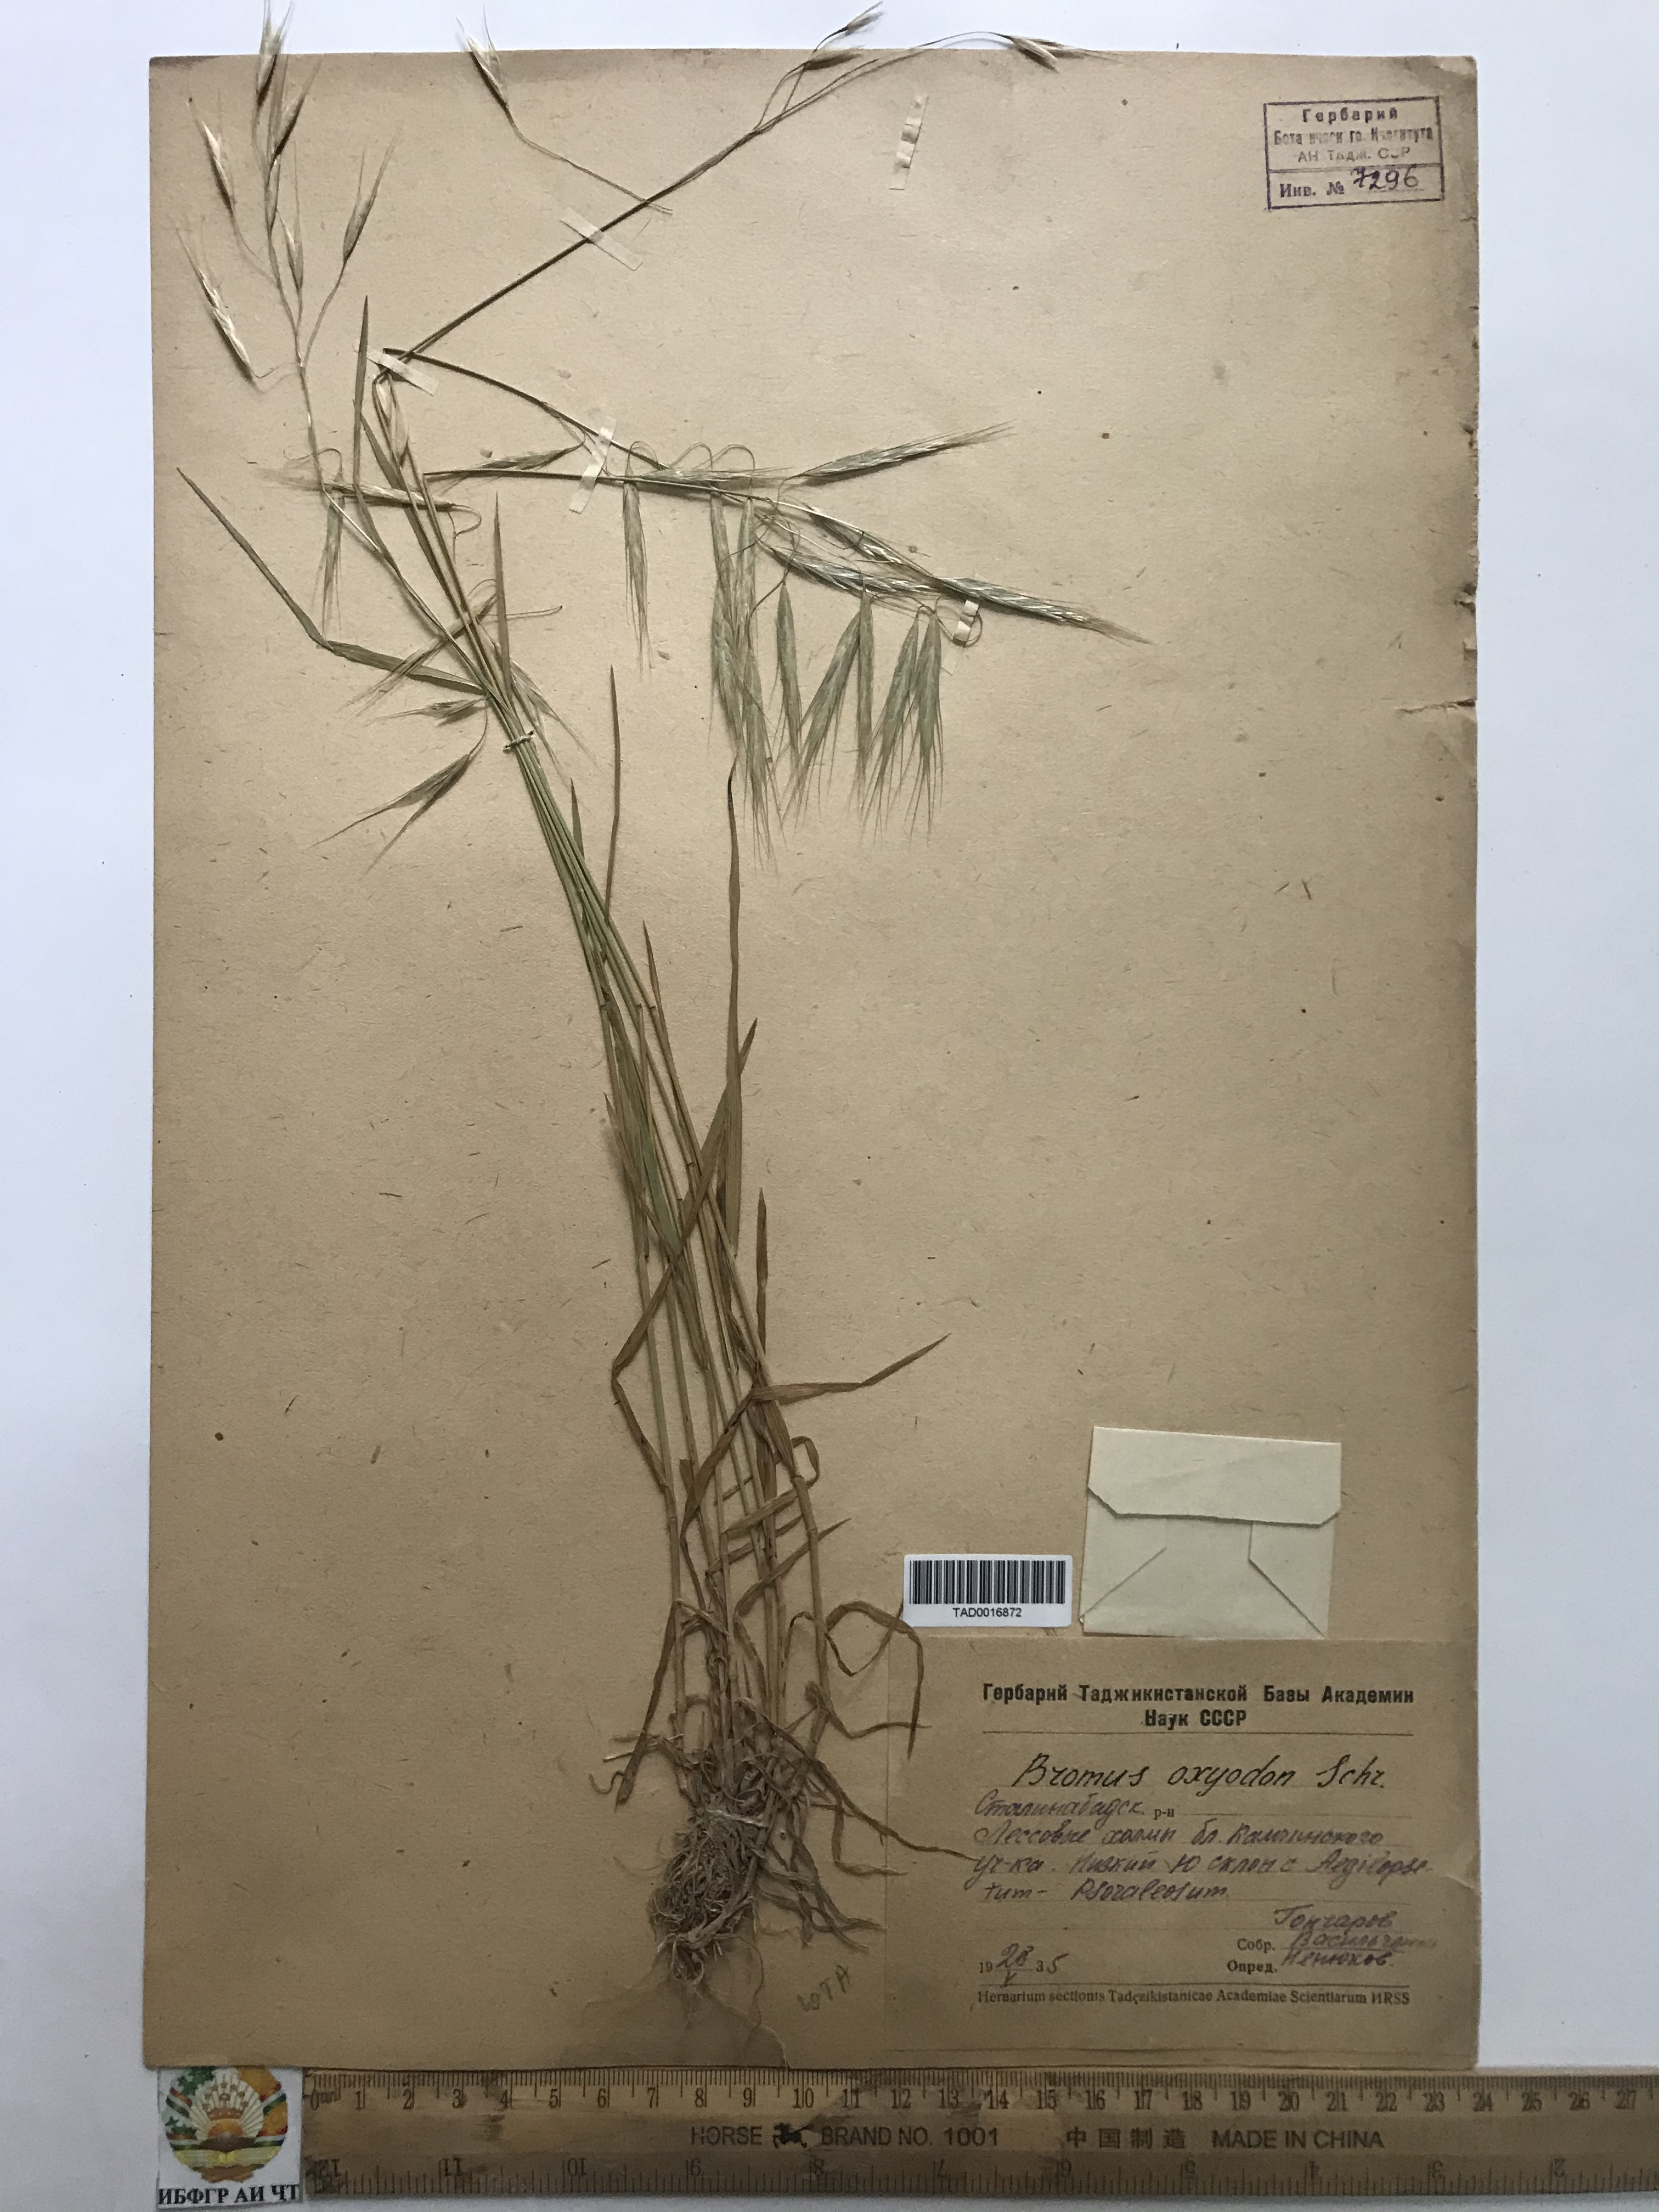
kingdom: Plantae
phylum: Tracheophyta
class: Liliopsida
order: Poales
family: Poaceae
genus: Bromus
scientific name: Bromus oxyodon
